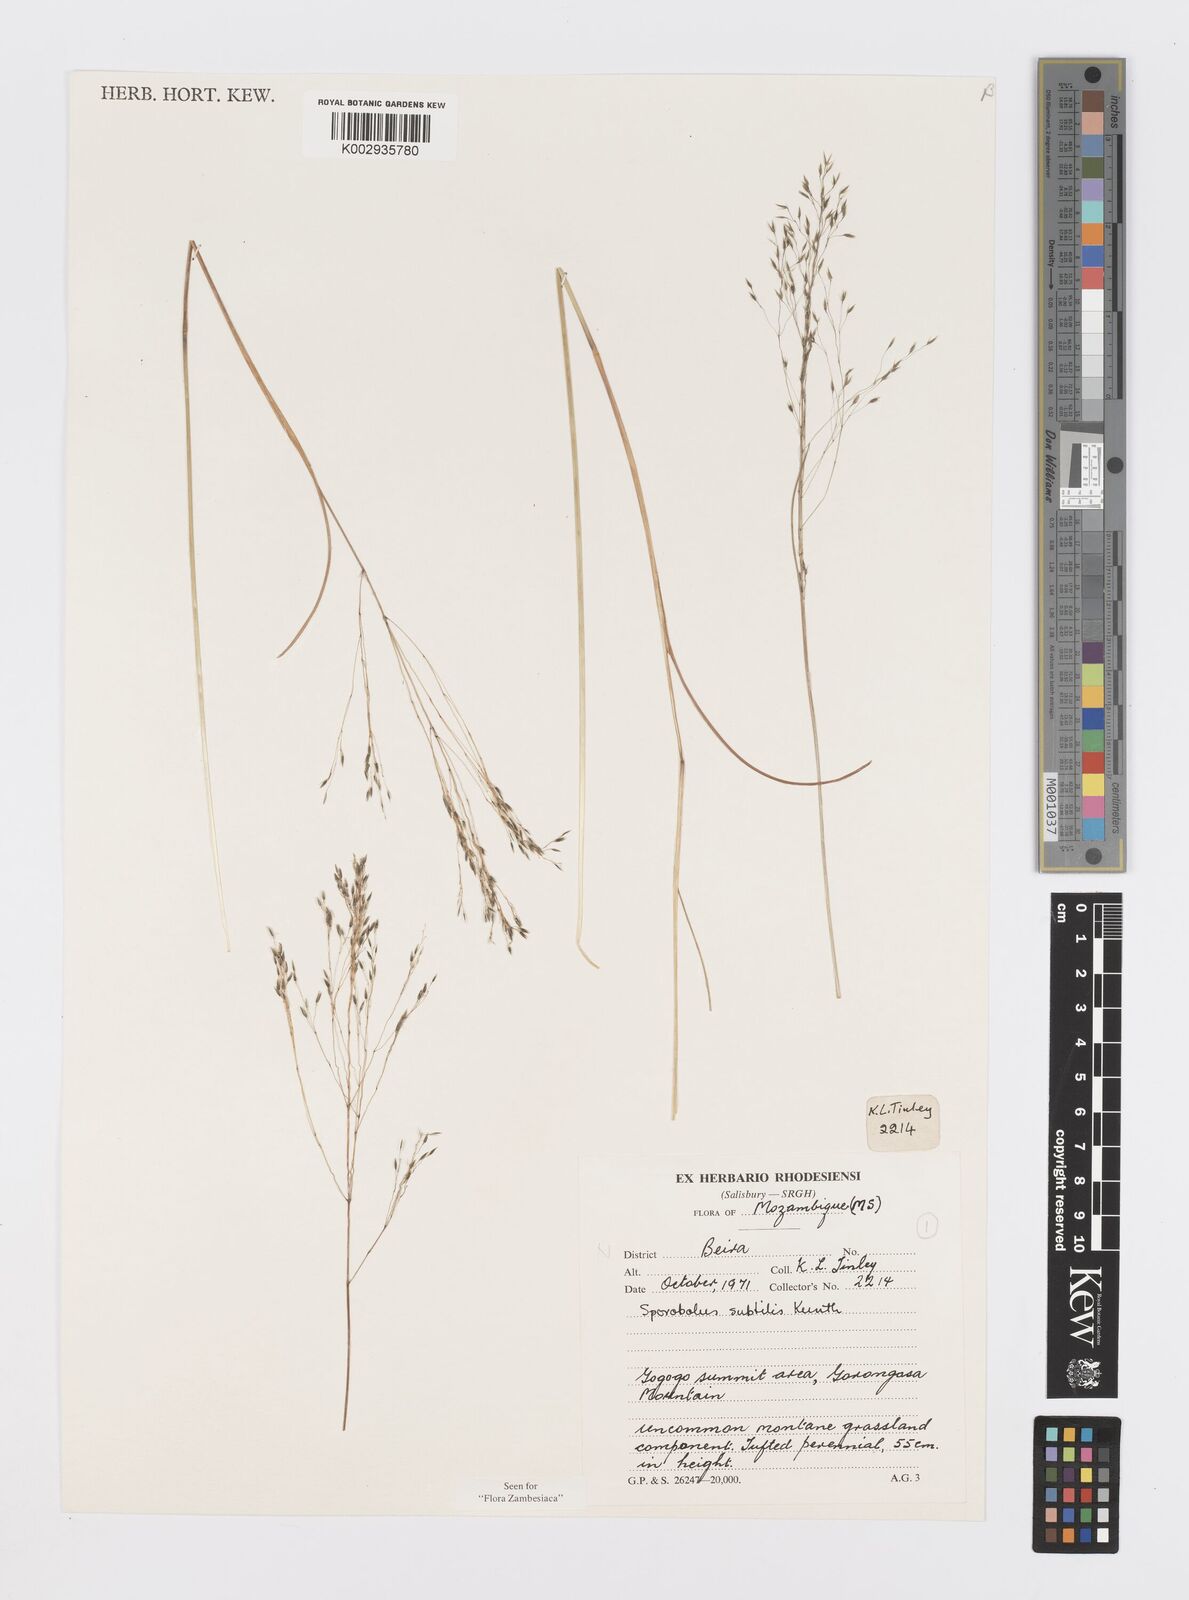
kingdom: Plantae
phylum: Tracheophyta
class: Liliopsida
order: Poales
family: Poaceae
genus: Sporobolus
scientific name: Sporobolus subtilis
